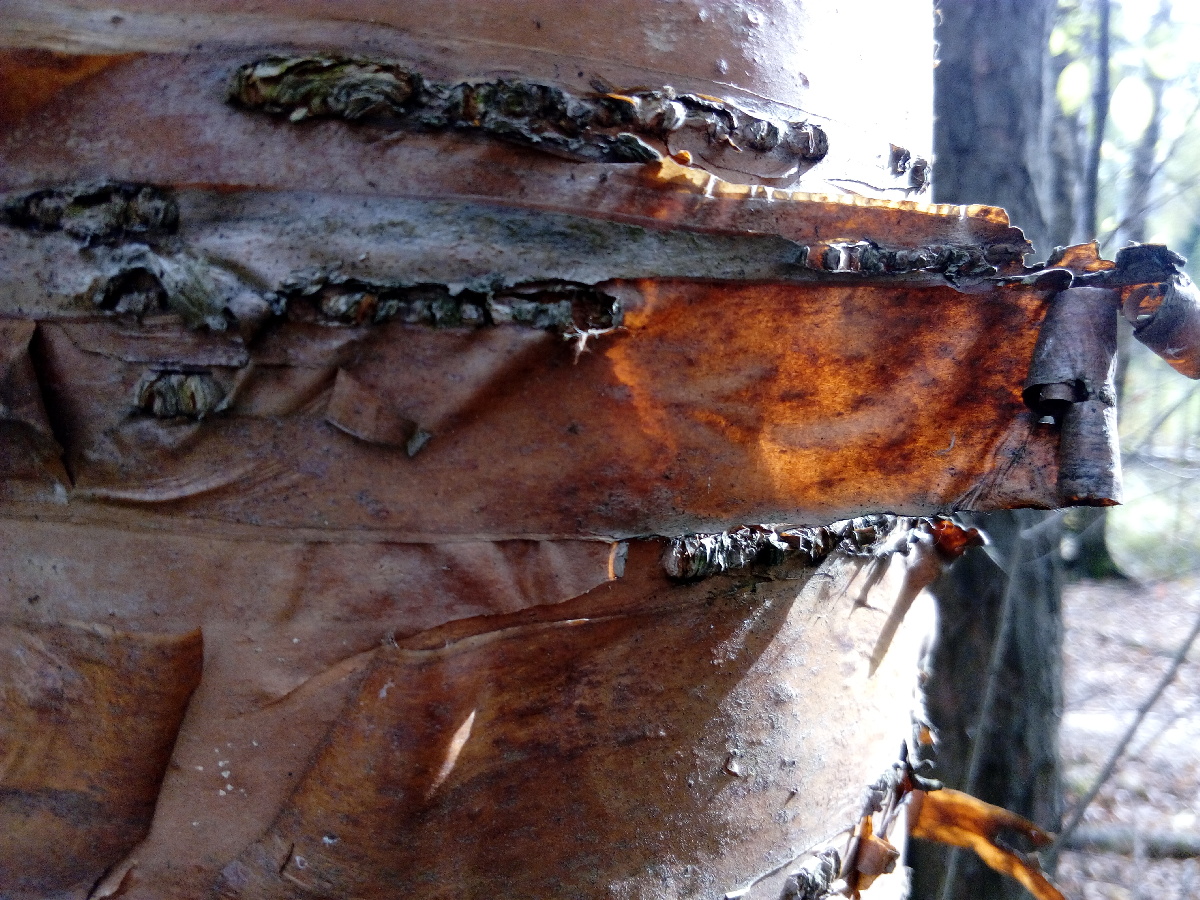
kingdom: Plantae
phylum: Tracheophyta
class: Magnoliopsida
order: Rosales
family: Rosaceae
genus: Prunus
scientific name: Prunus virginiana
